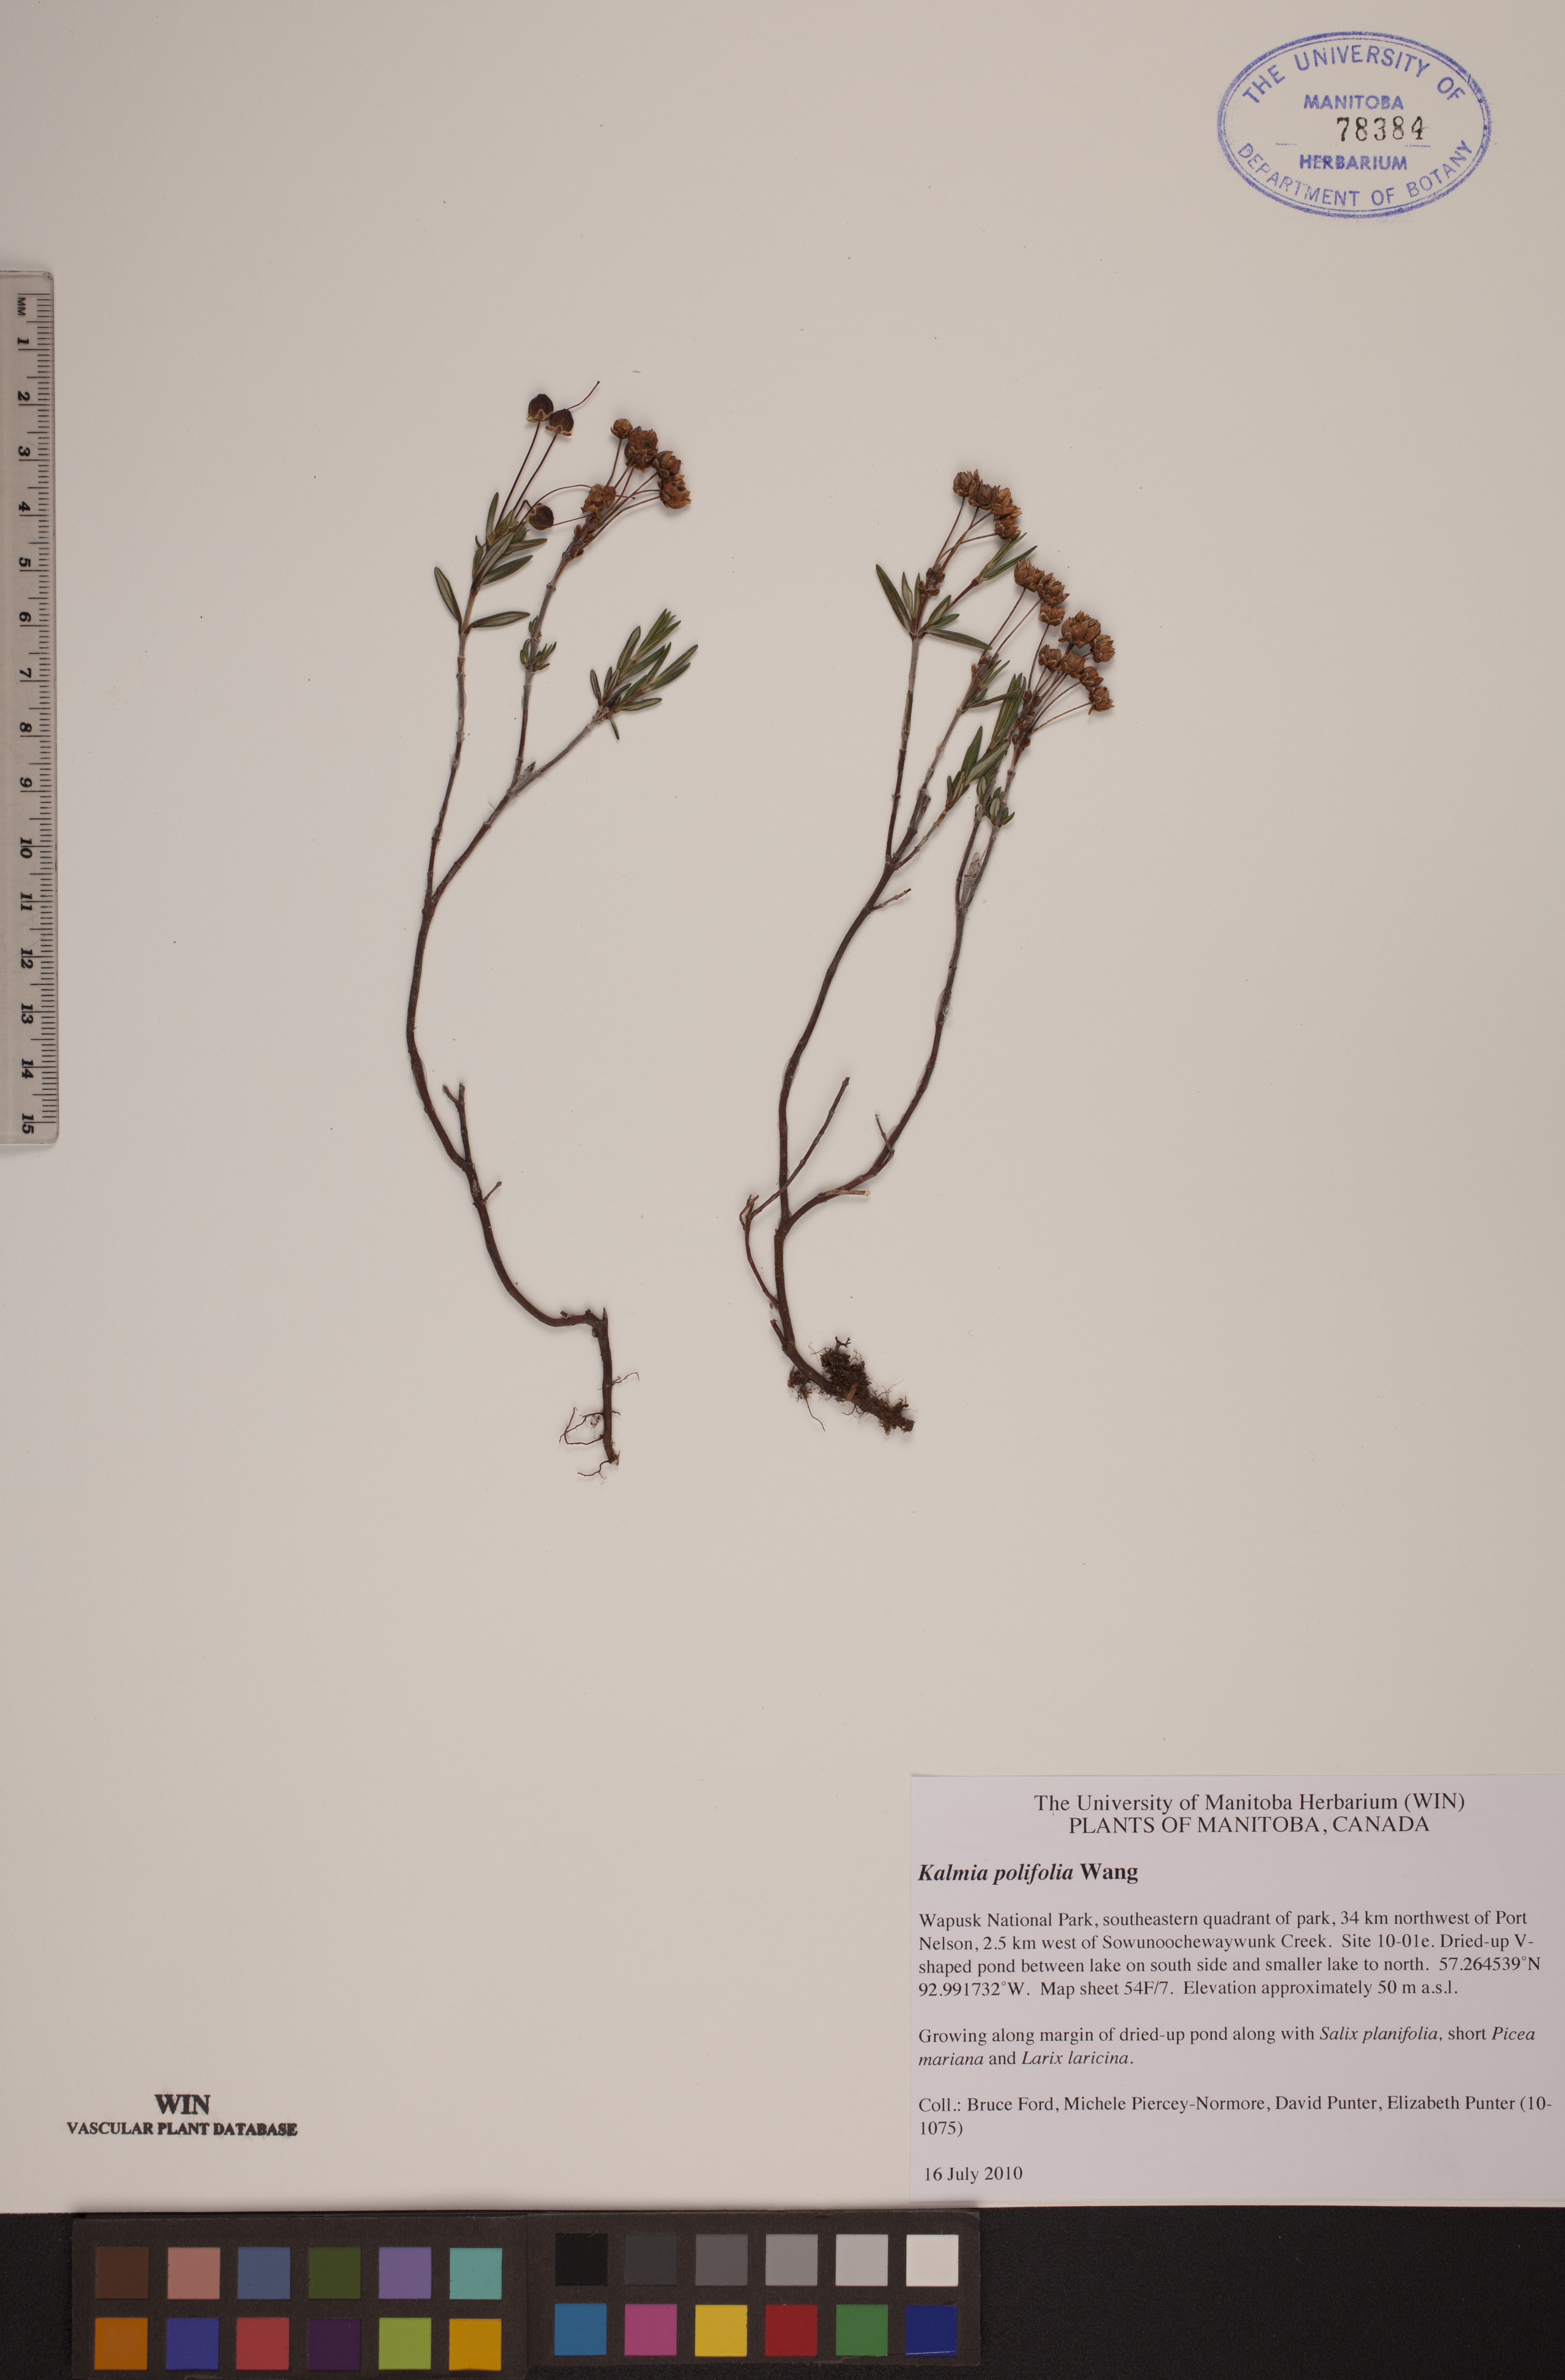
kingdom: Plantae
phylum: Tracheophyta
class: Magnoliopsida
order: Ericales
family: Ericaceae
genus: Kalmia
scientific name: Kalmia polifolia
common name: Bog-laurel
